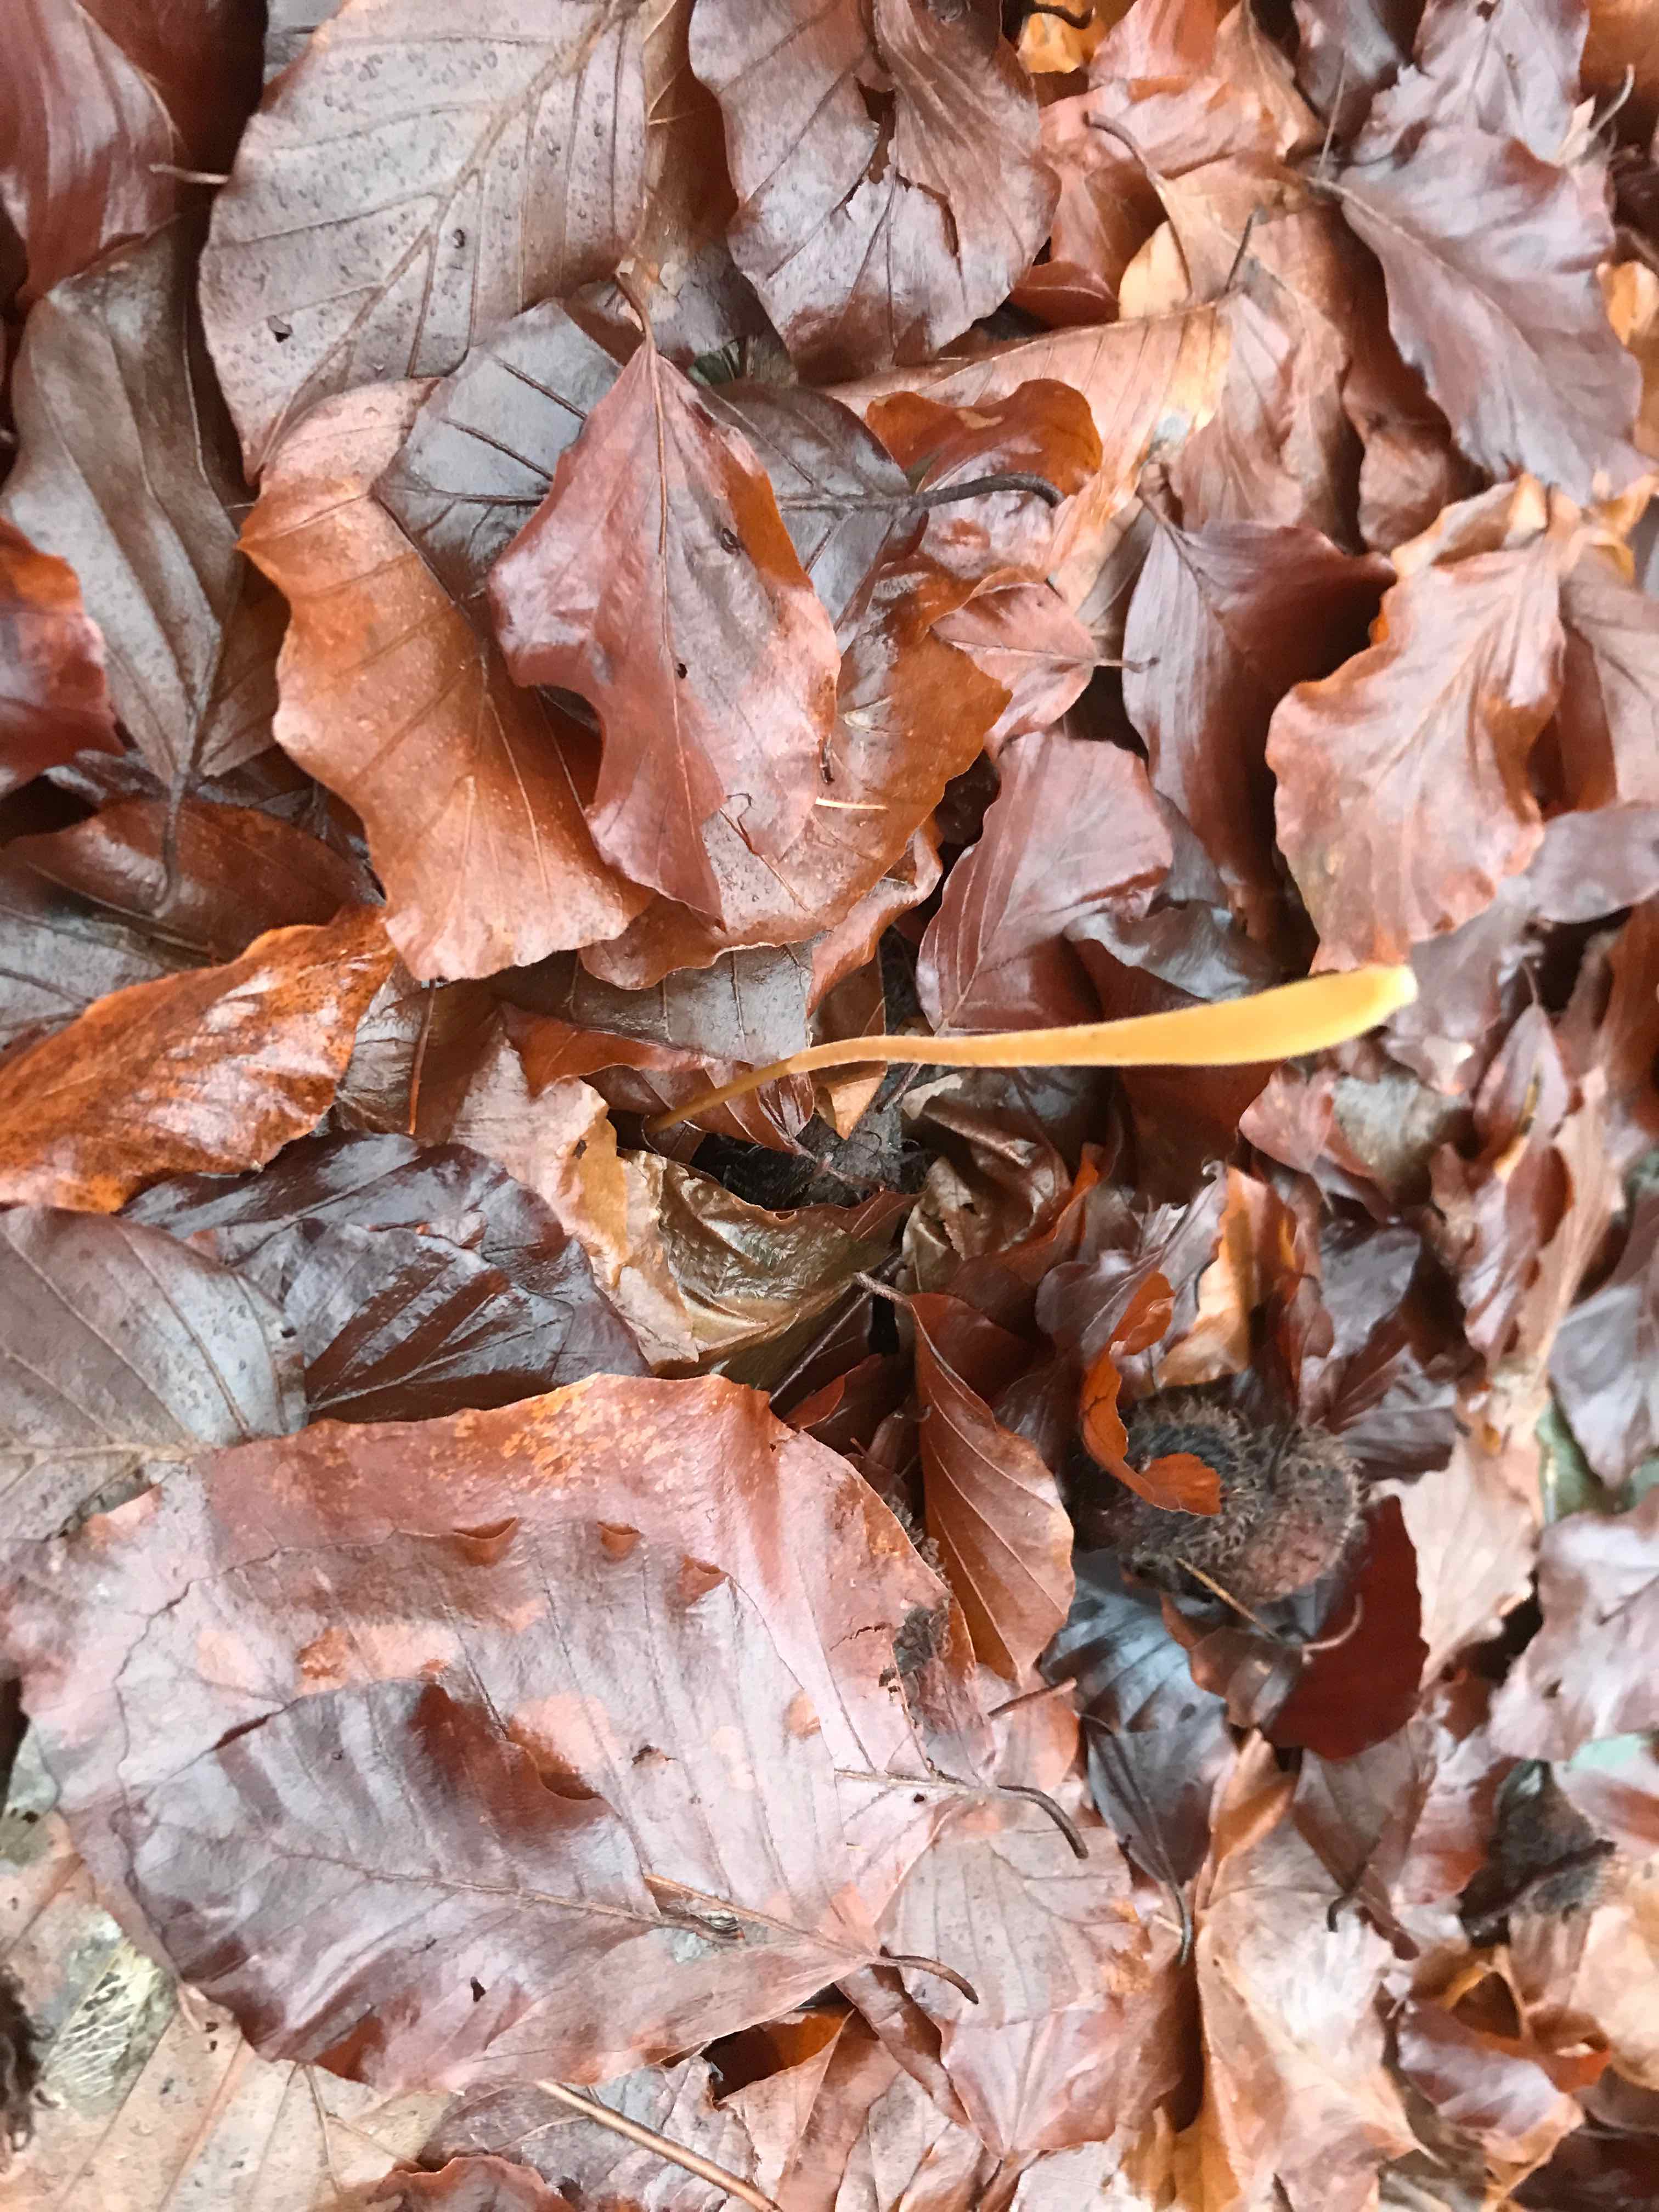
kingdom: Fungi
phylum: Basidiomycota
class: Agaricomycetes
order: Agaricales
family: Typhulaceae
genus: Typhula
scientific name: Typhula fistulosa
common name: pibet rørkølle
